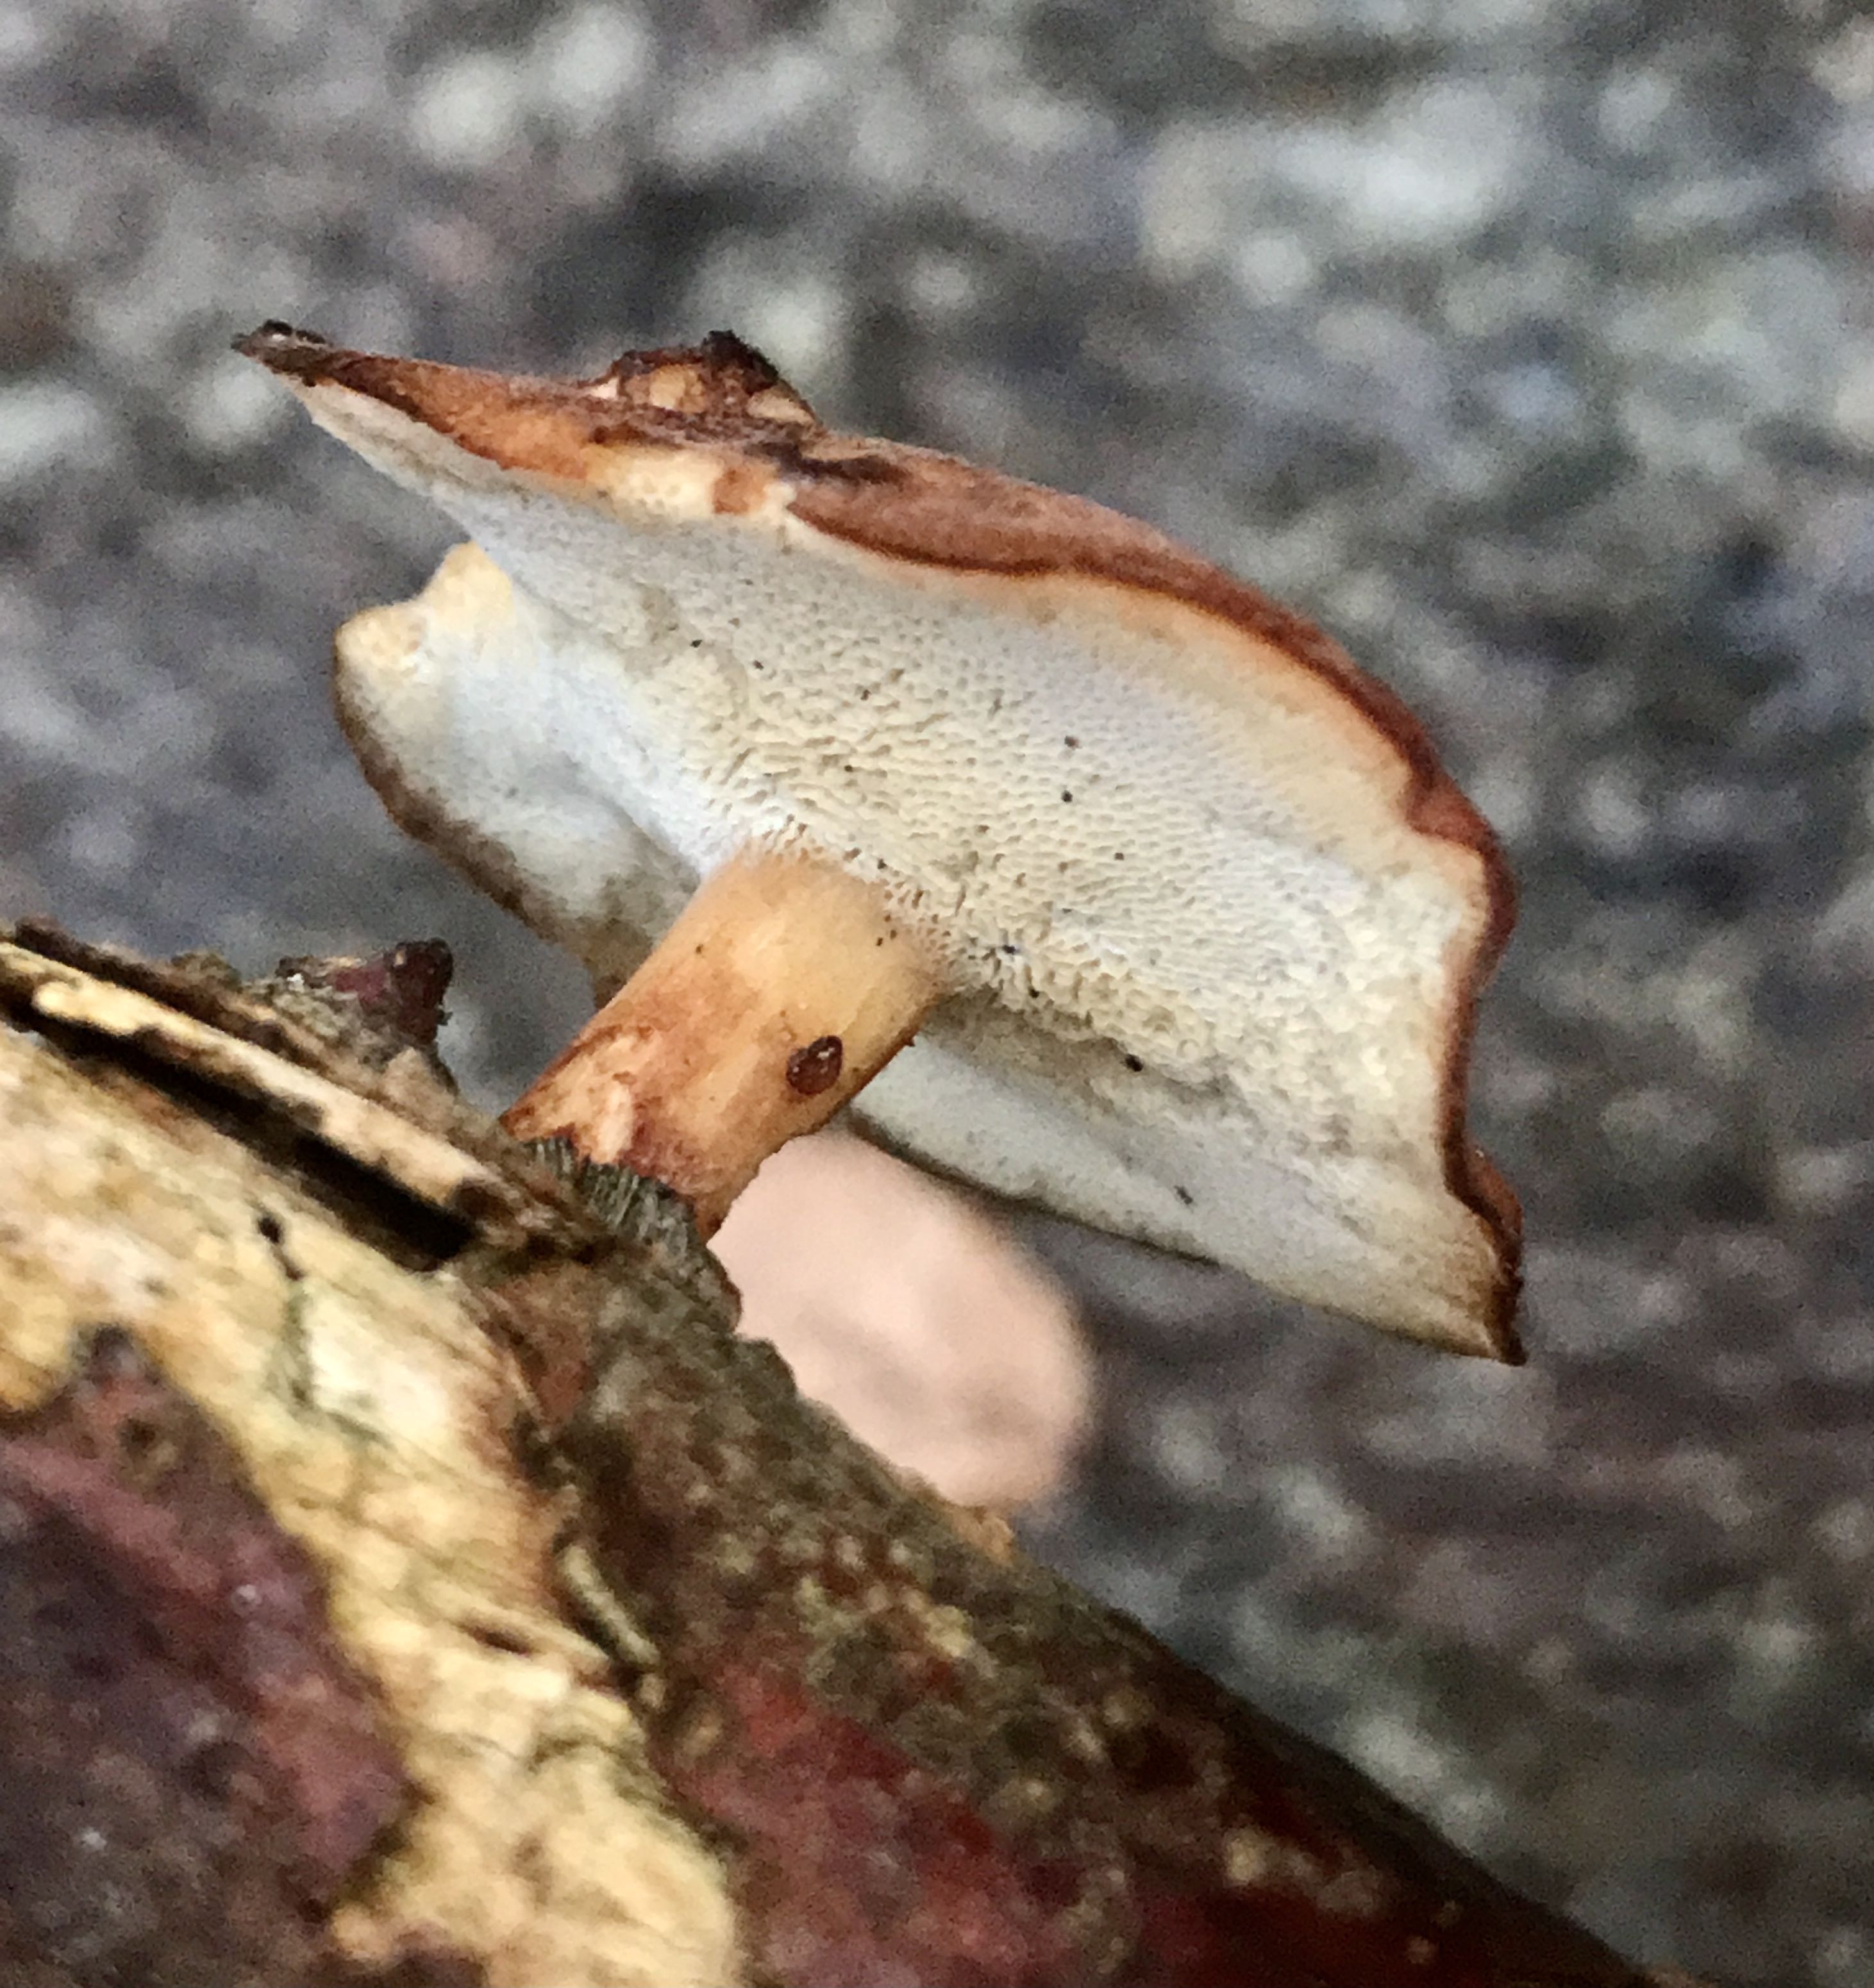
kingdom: Fungi
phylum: Basidiomycota
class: Agaricomycetes
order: Polyporales
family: Polyporaceae
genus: Lentinus
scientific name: Lentinus brumalis
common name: vinter-stilkporesvamp
